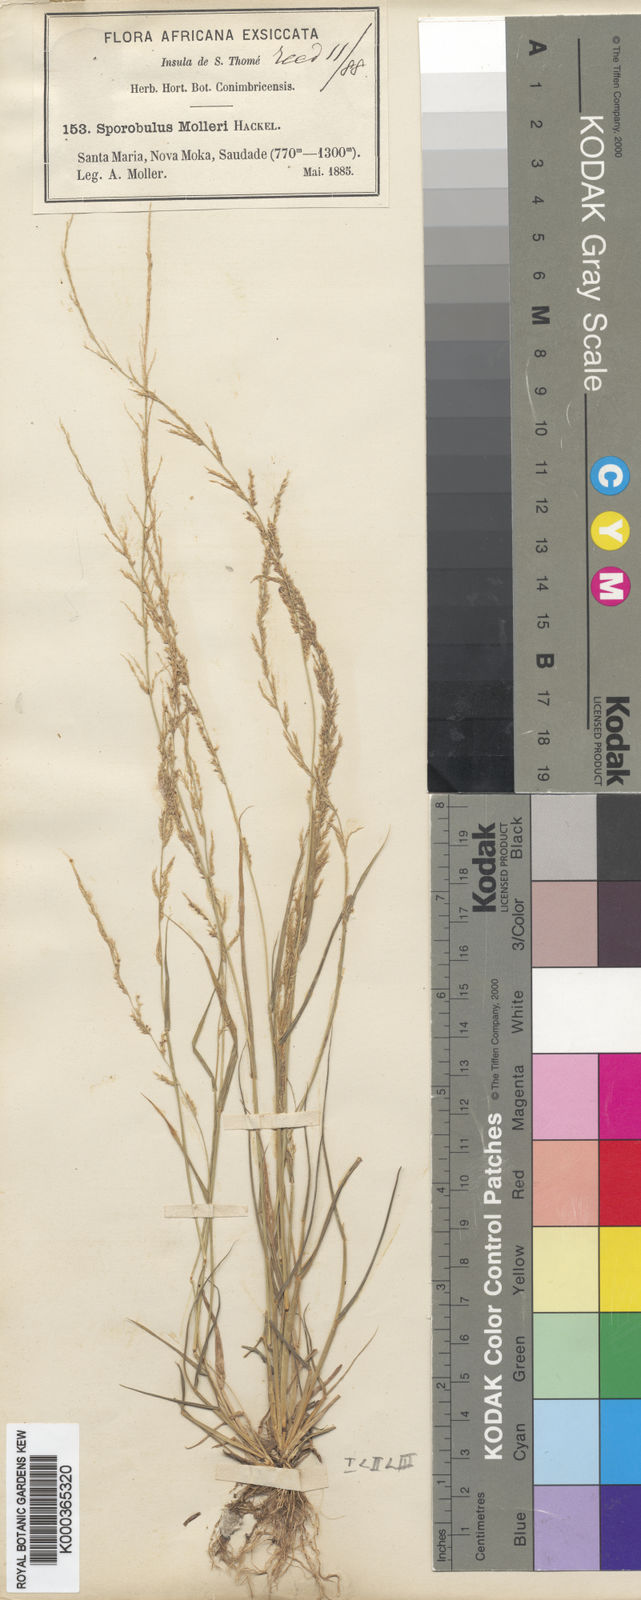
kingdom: Plantae
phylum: Tracheophyta
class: Liliopsida
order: Poales
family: Poaceae
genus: Sporobolus
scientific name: Sporobolus molleri
